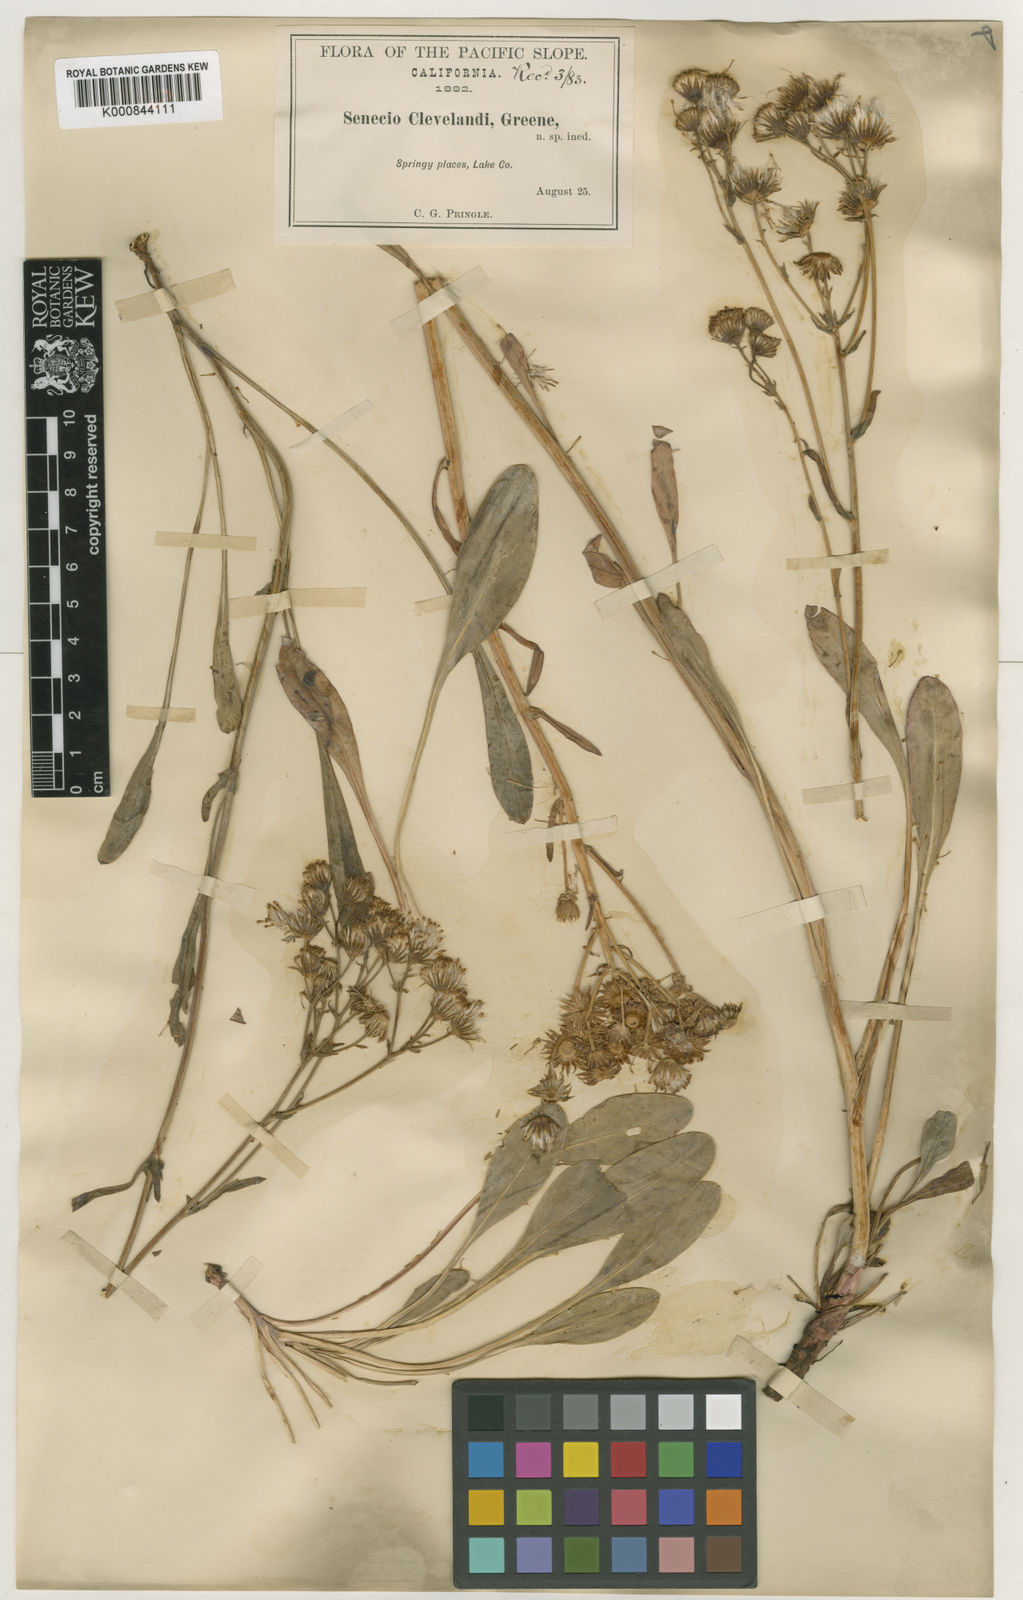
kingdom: Plantae
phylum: Tracheophyta
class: Magnoliopsida
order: Asterales
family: Asteraceae
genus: Packera
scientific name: Packera
